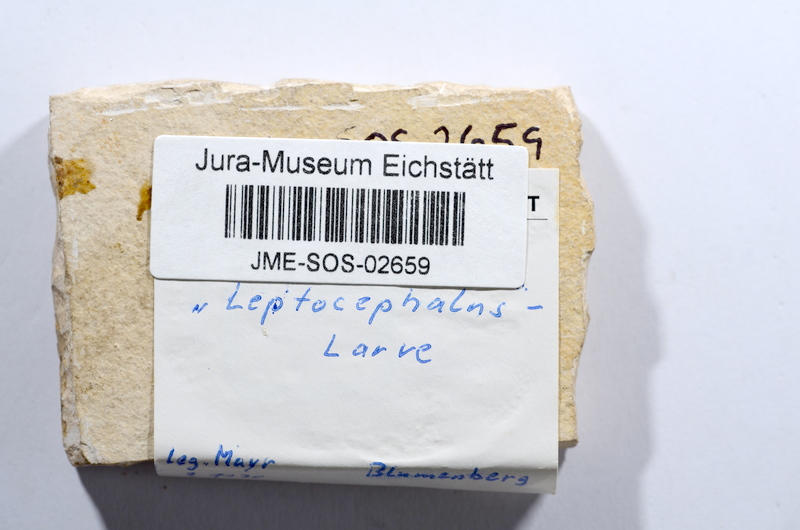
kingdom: Animalia
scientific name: Animalia
